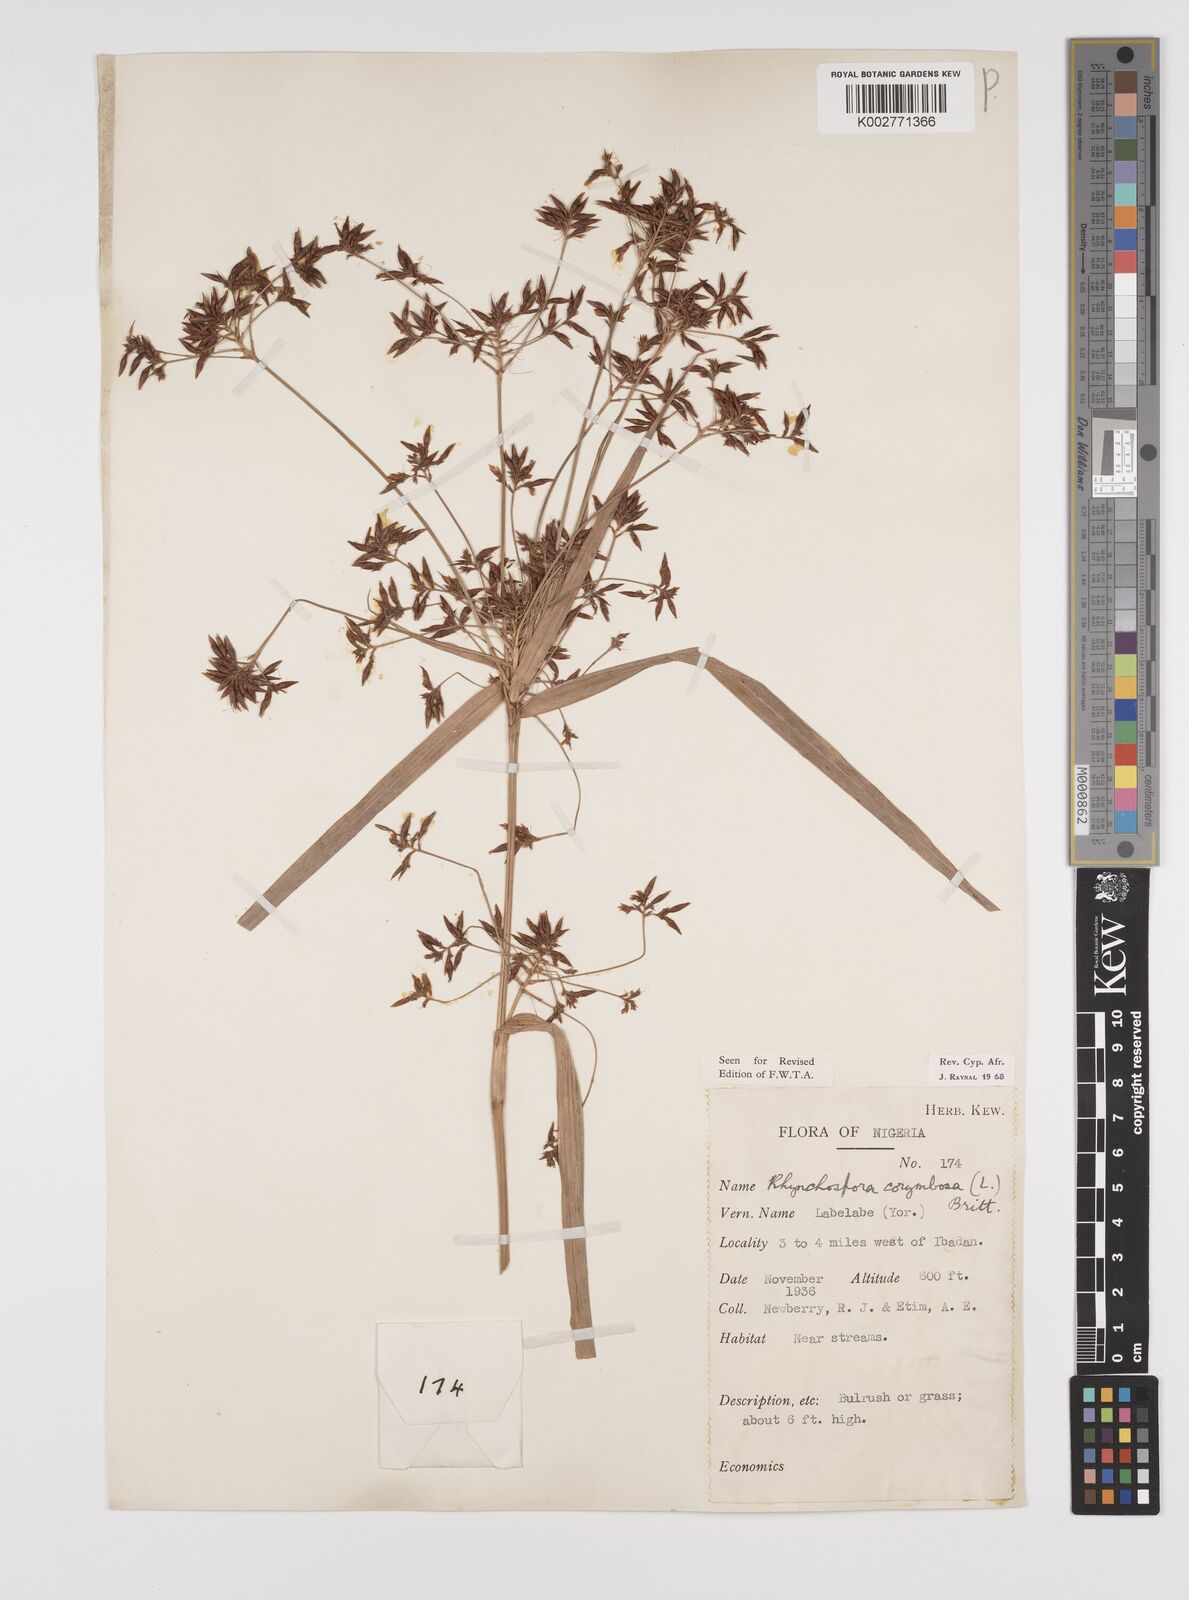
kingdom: Plantae
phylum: Tracheophyta
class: Liliopsida
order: Poales
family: Cyperaceae
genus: Rhynchospora
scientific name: Rhynchospora corymbosa
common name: Golden beak sedge
